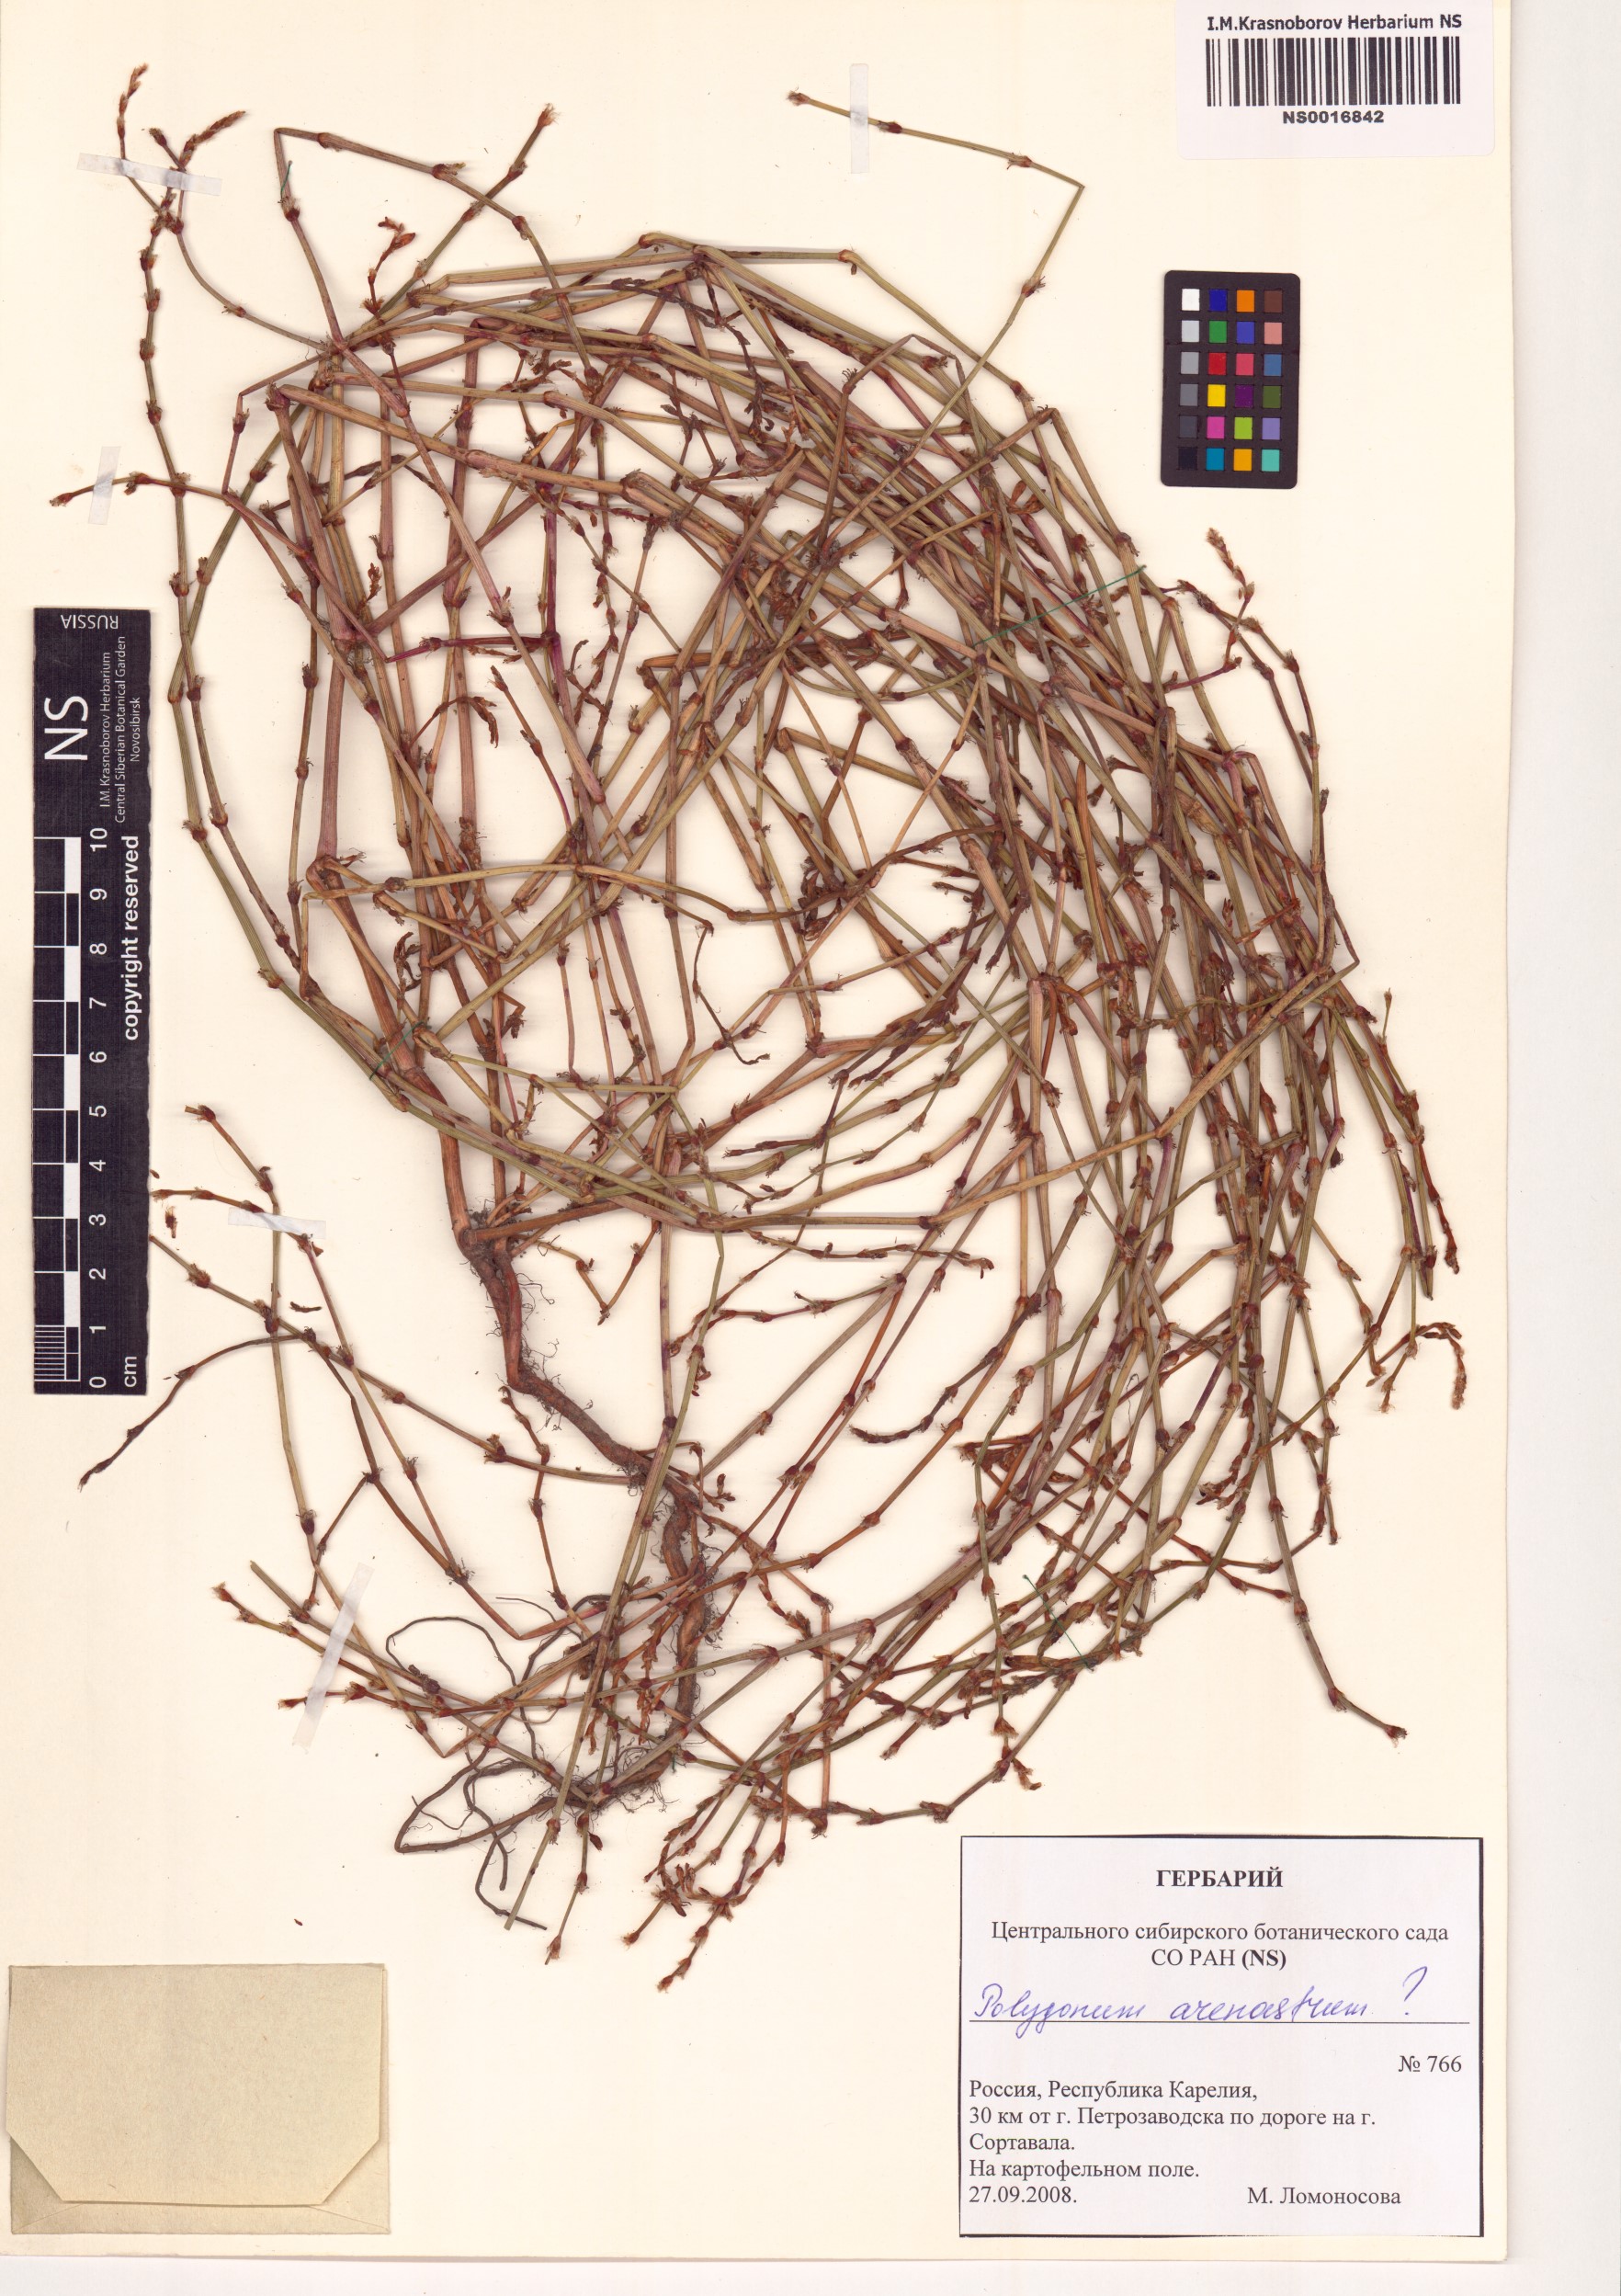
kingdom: Plantae
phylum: Tracheophyta
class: Magnoliopsida
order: Caryophyllales
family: Polygonaceae
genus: Polygonum
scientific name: Polygonum arenastrum
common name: Equal-leaved knotgrass
